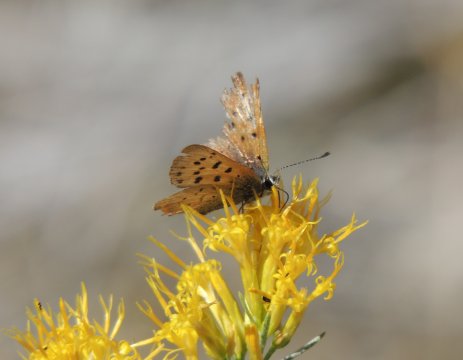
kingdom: Animalia
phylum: Arthropoda
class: Insecta
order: Lepidoptera
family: Sesiidae
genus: Sesia
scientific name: Sesia Lycaena helloides
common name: Purplish Copper
